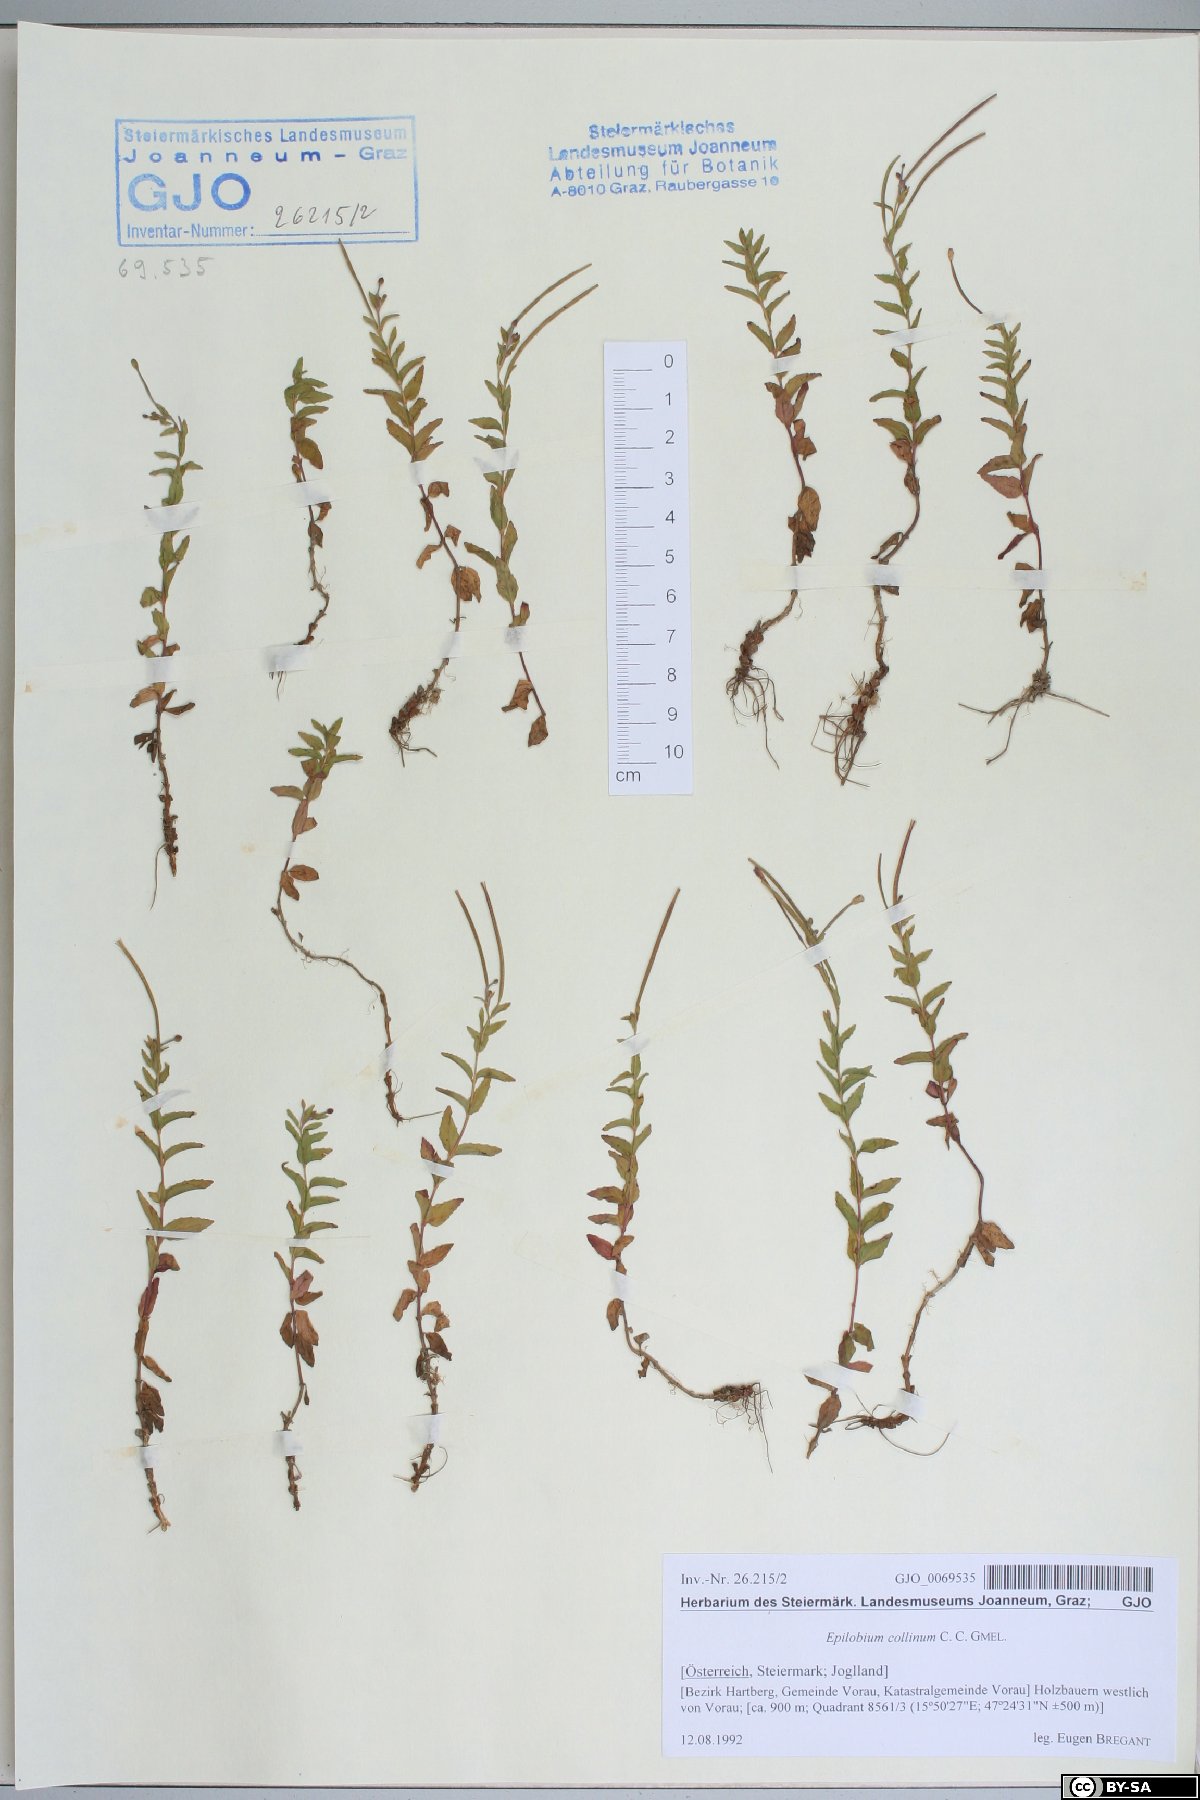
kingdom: Plantae
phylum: Tracheophyta
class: Magnoliopsida
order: Myrtales
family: Onagraceae
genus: Epilobium
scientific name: Epilobium collinum
